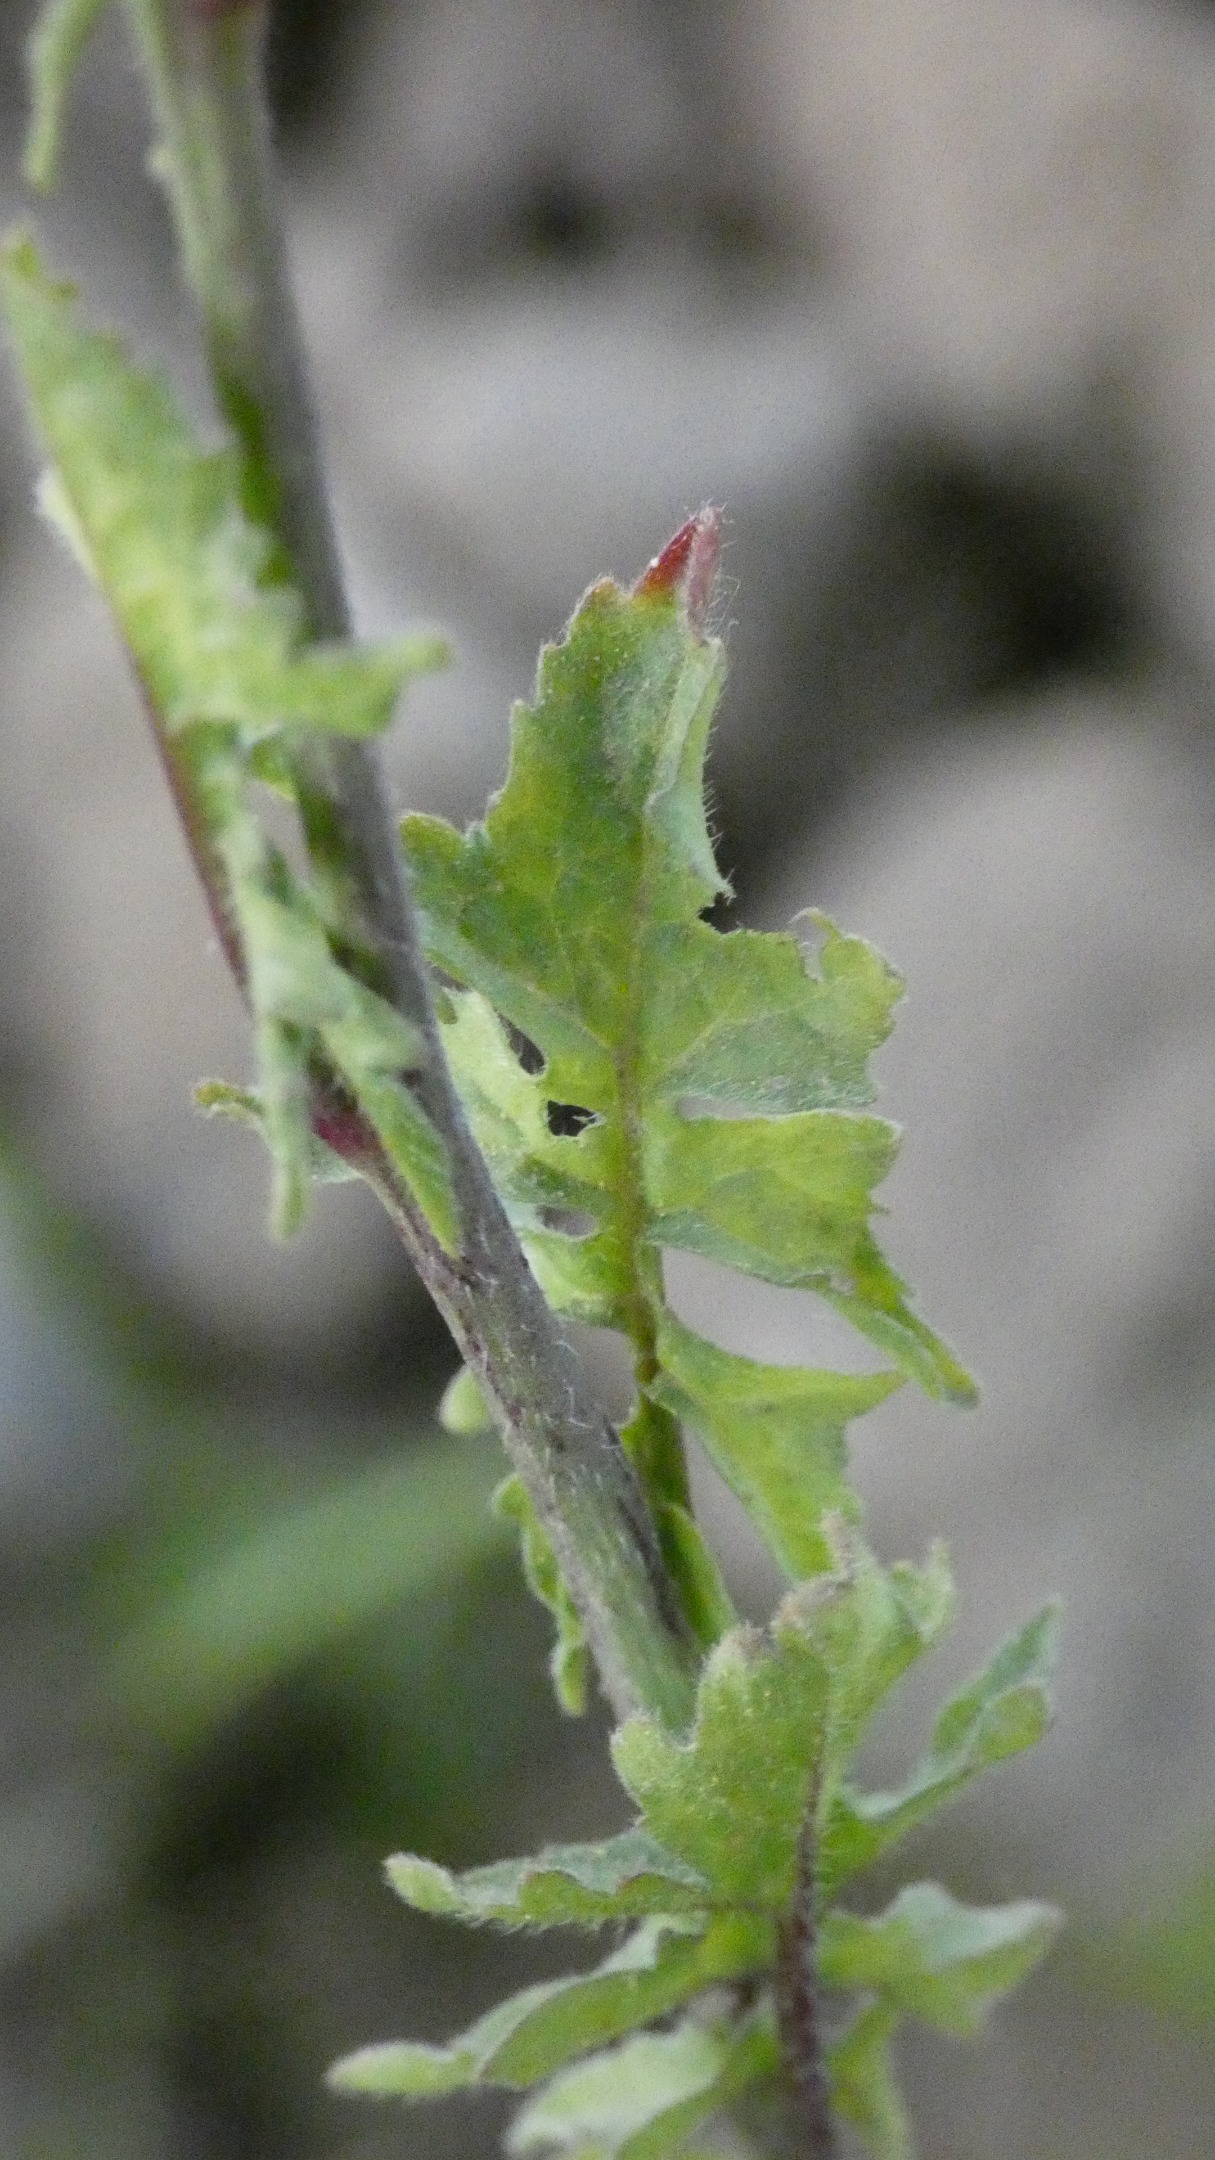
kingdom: Plantae
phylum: Tracheophyta
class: Magnoliopsida
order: Brassicales
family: Brassicaceae
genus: Sisymbrium
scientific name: Sisymbrium officinale
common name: Rank vejsennep
